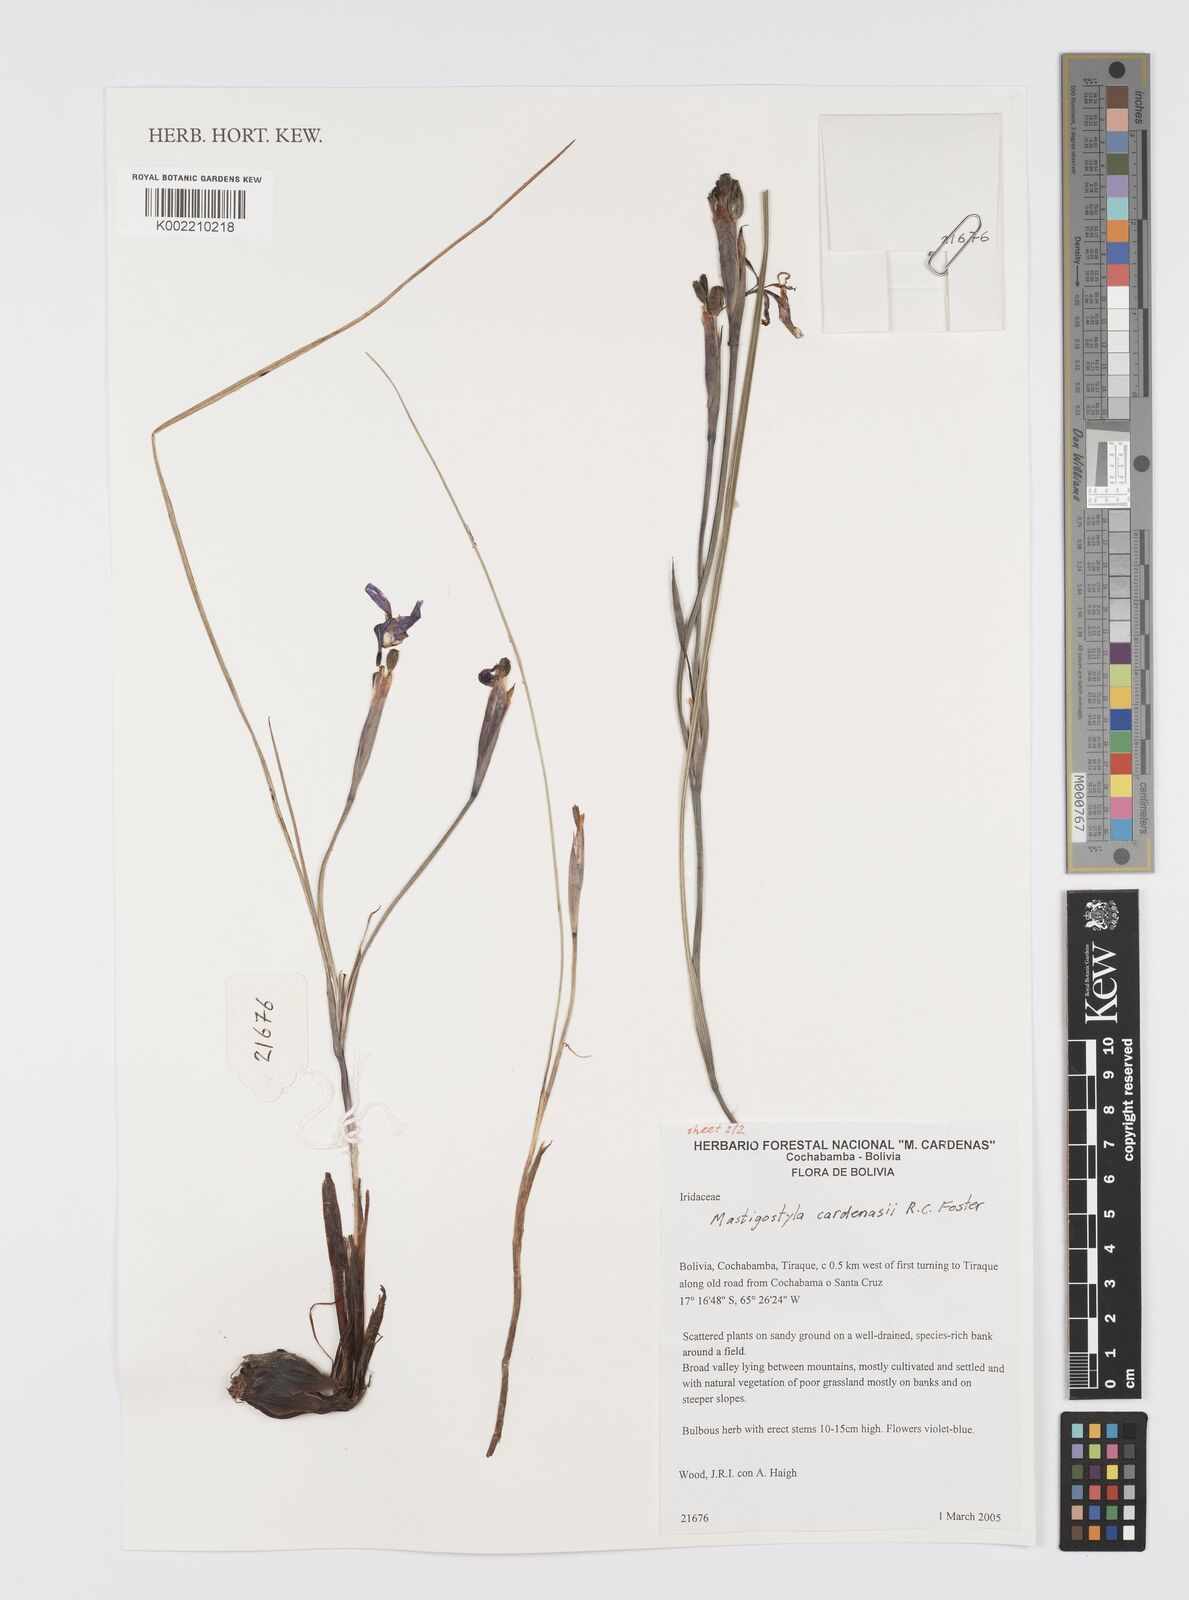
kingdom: Plantae
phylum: Tracheophyta
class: Liliopsida
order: Asparagales
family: Iridaceae
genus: Mastigostyla
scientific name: Mastigostyla cardenasii
